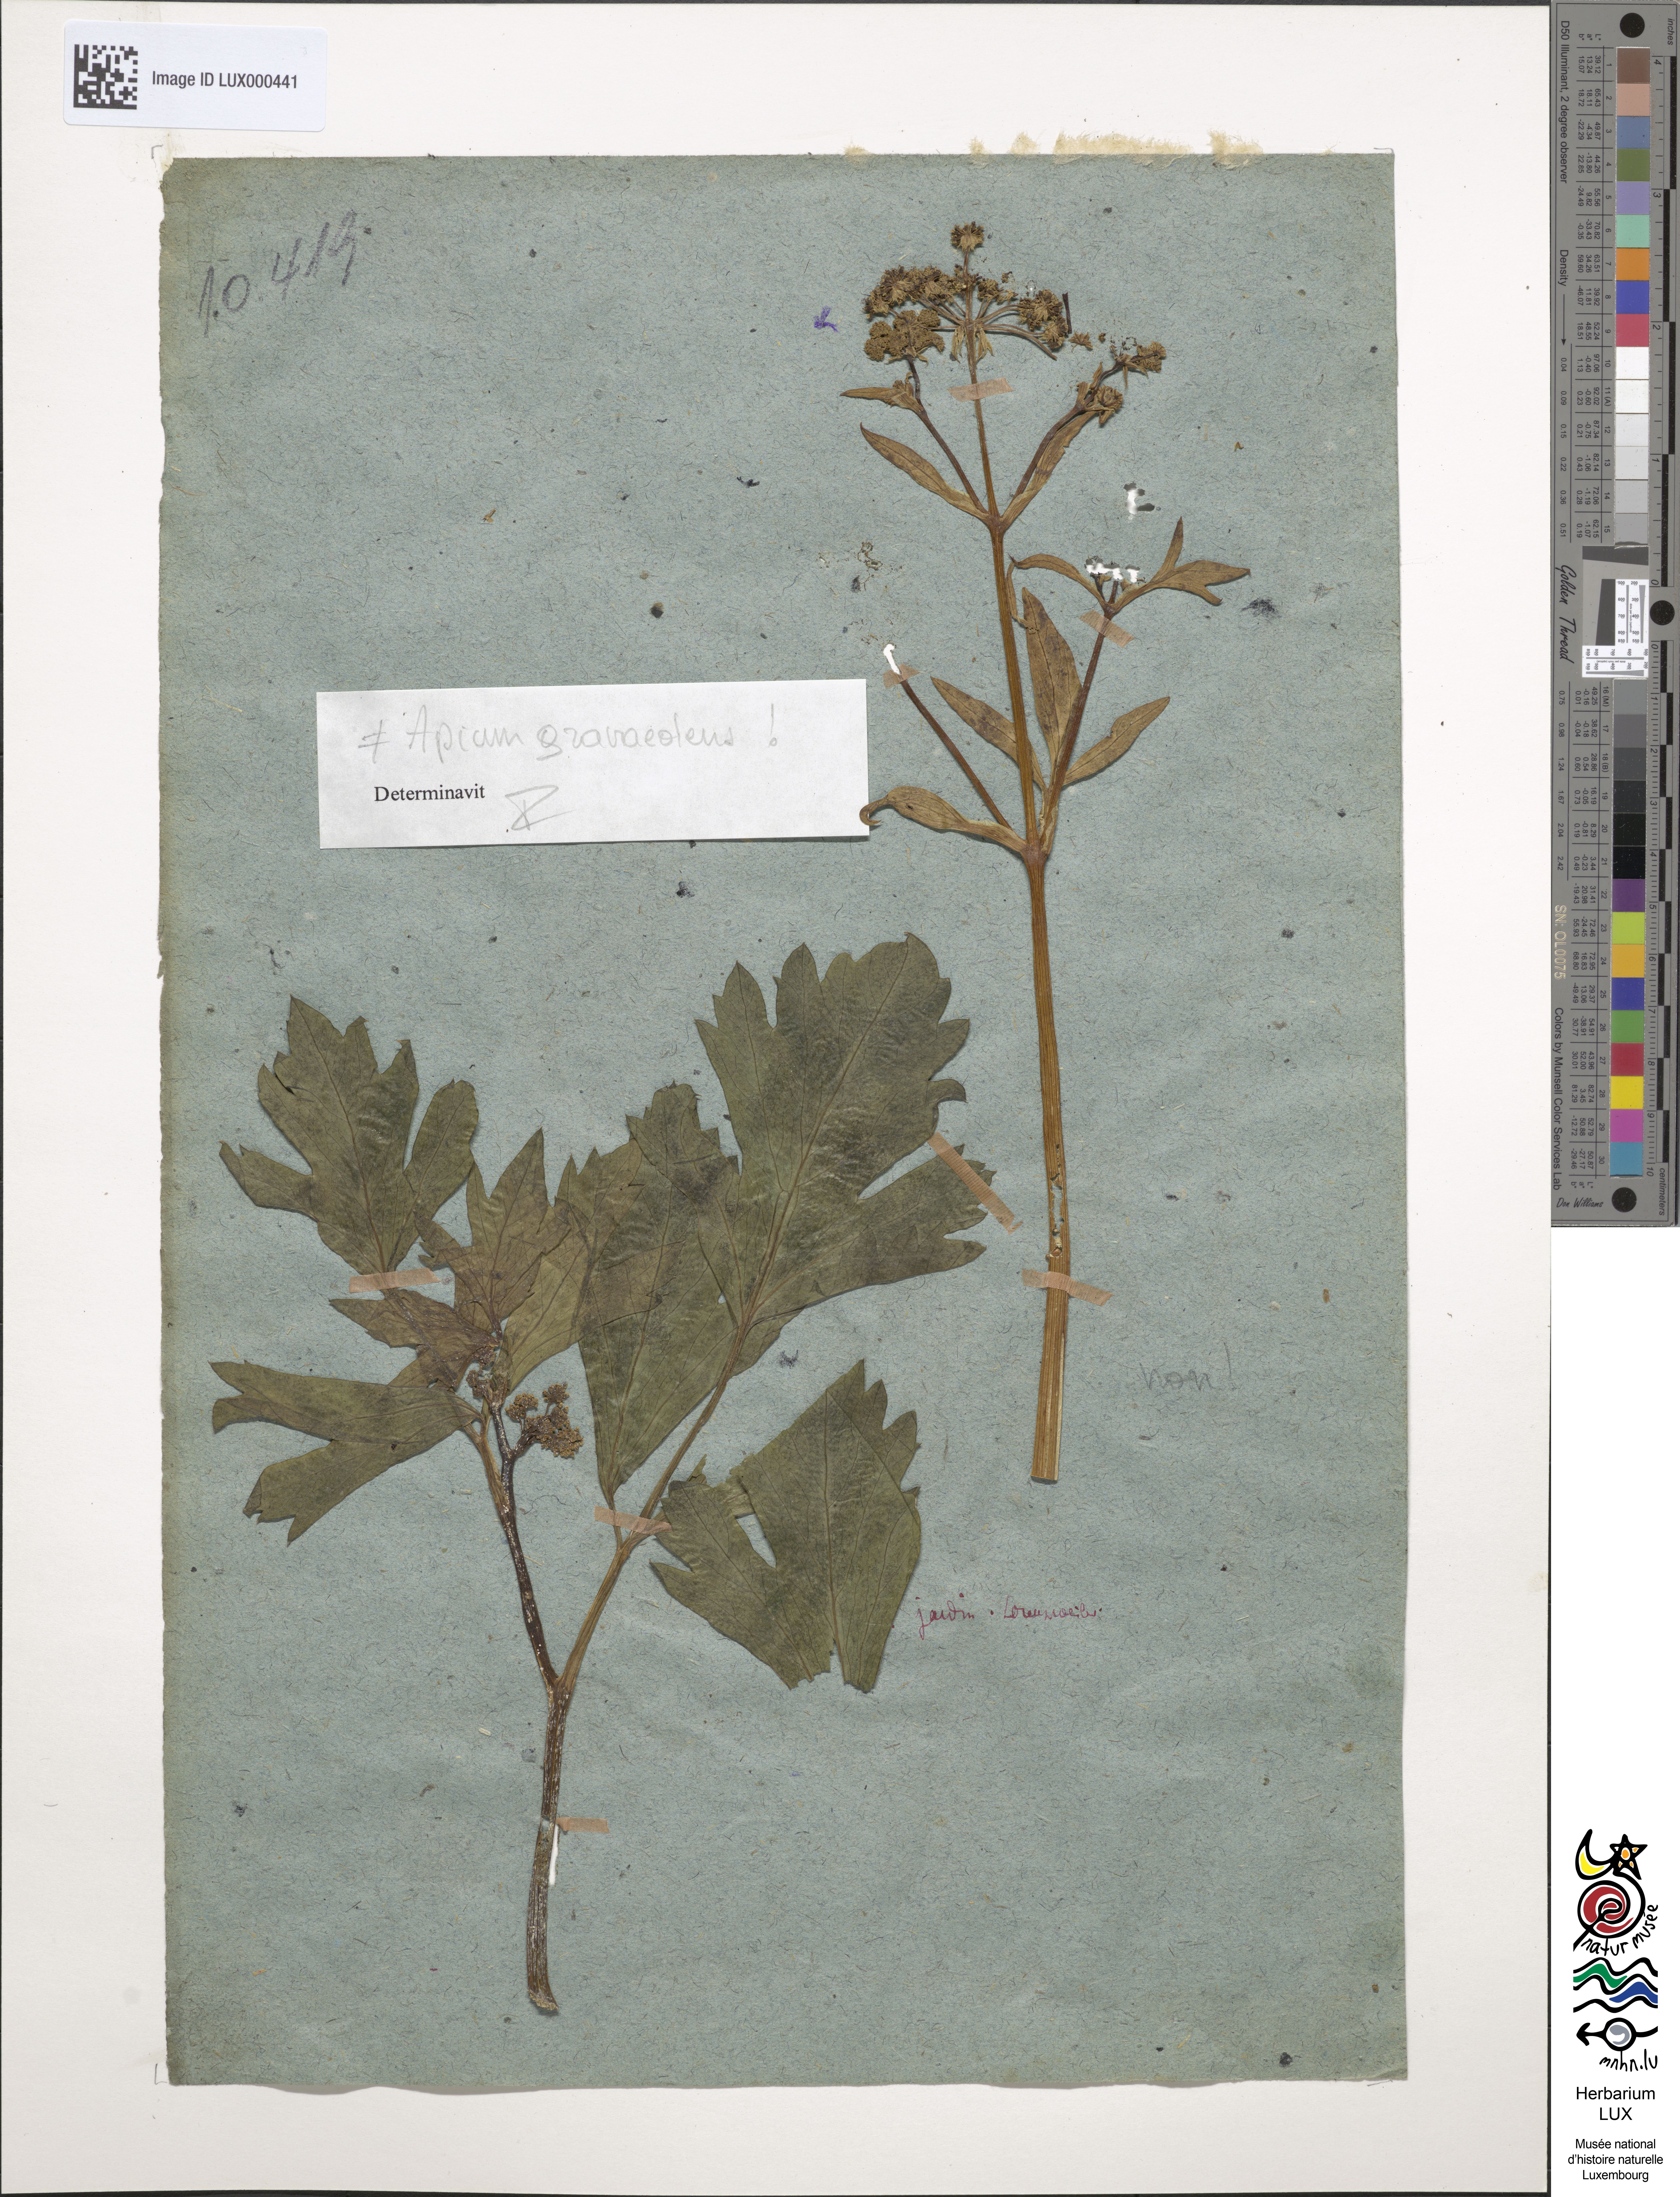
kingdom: Plantae
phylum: Tracheophyta
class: Magnoliopsida
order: Apiales
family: Apiaceae
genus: Apium
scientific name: Apium graveolens
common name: Wild celery
